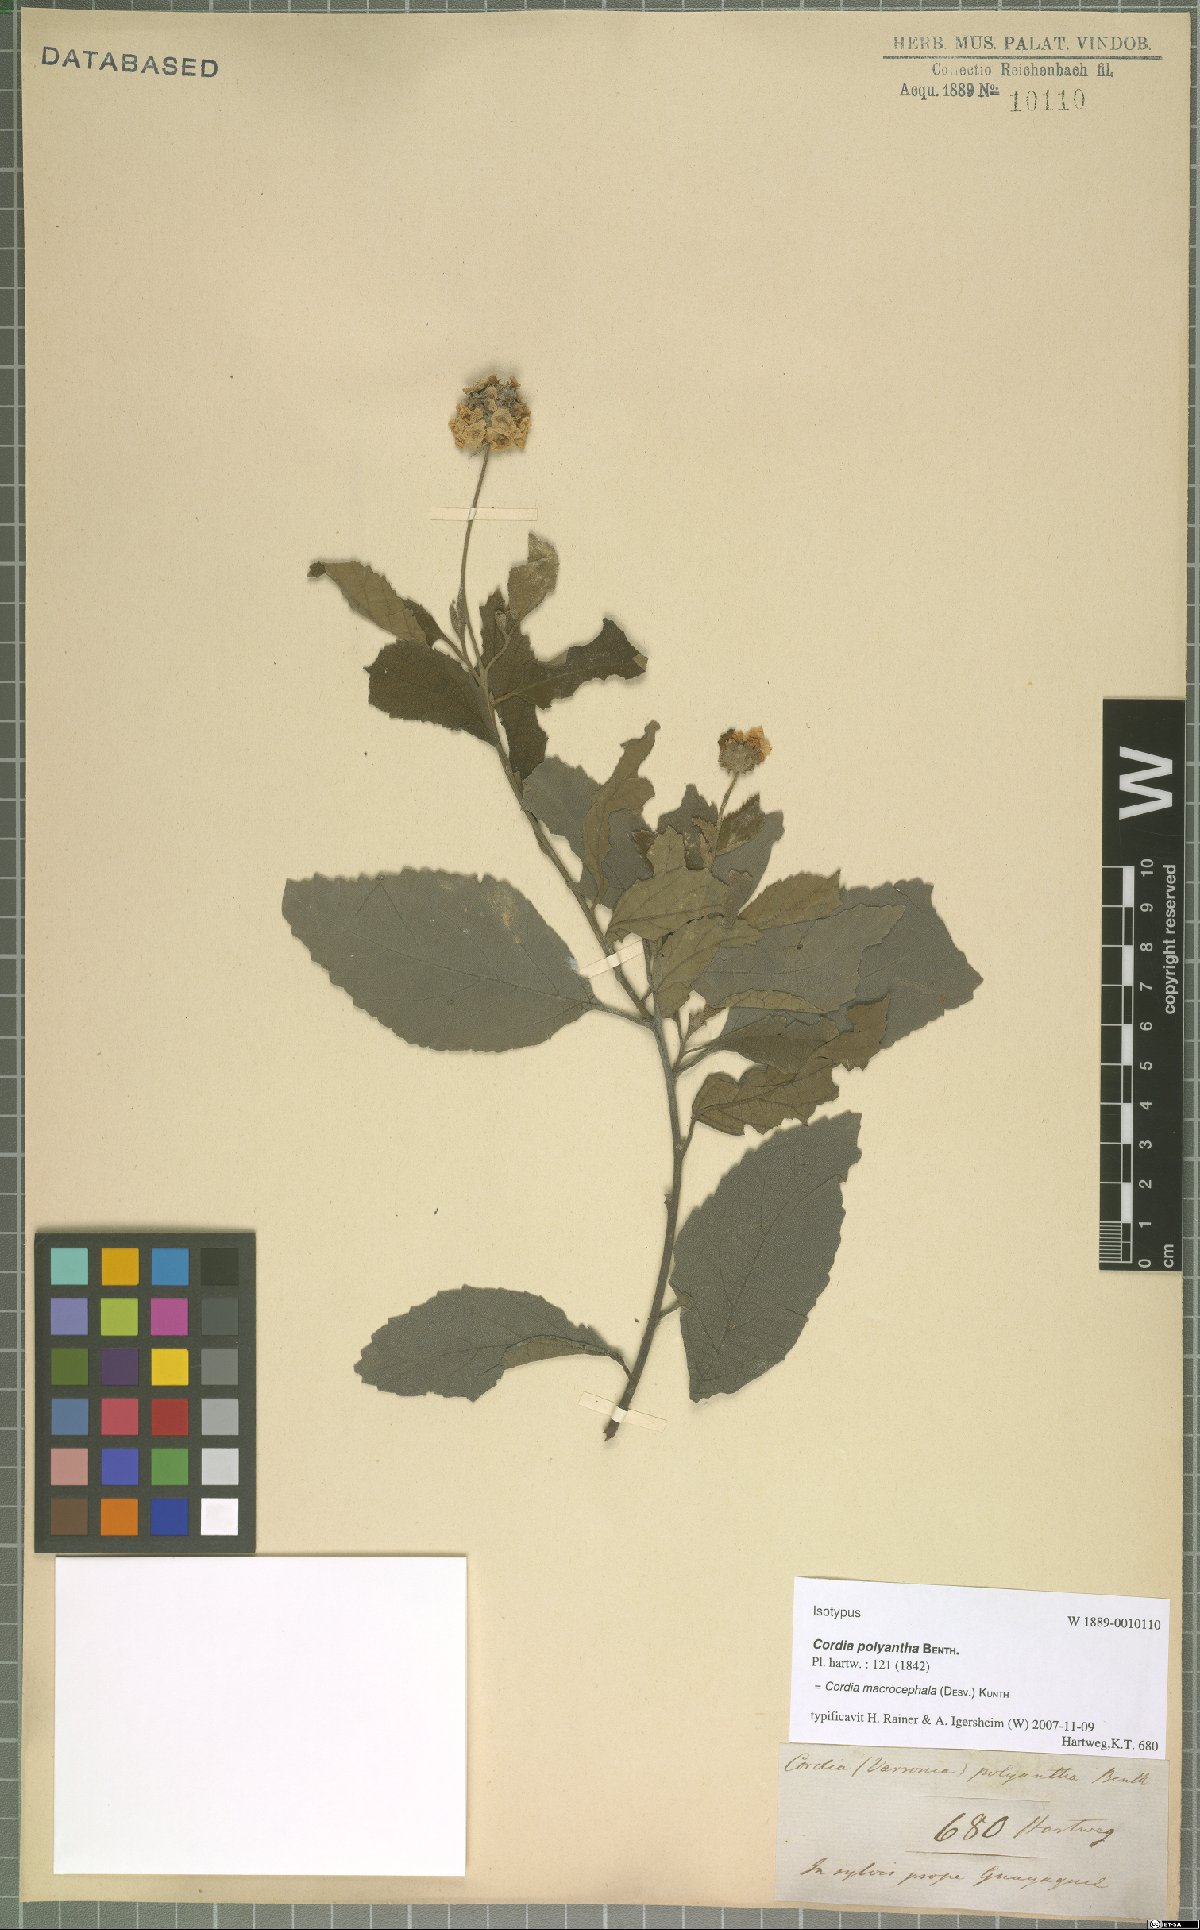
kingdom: Plantae
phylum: Tracheophyta
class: Magnoliopsida
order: Boraginales
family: Cordiaceae
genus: Varronia
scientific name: Varronia macrocephala
